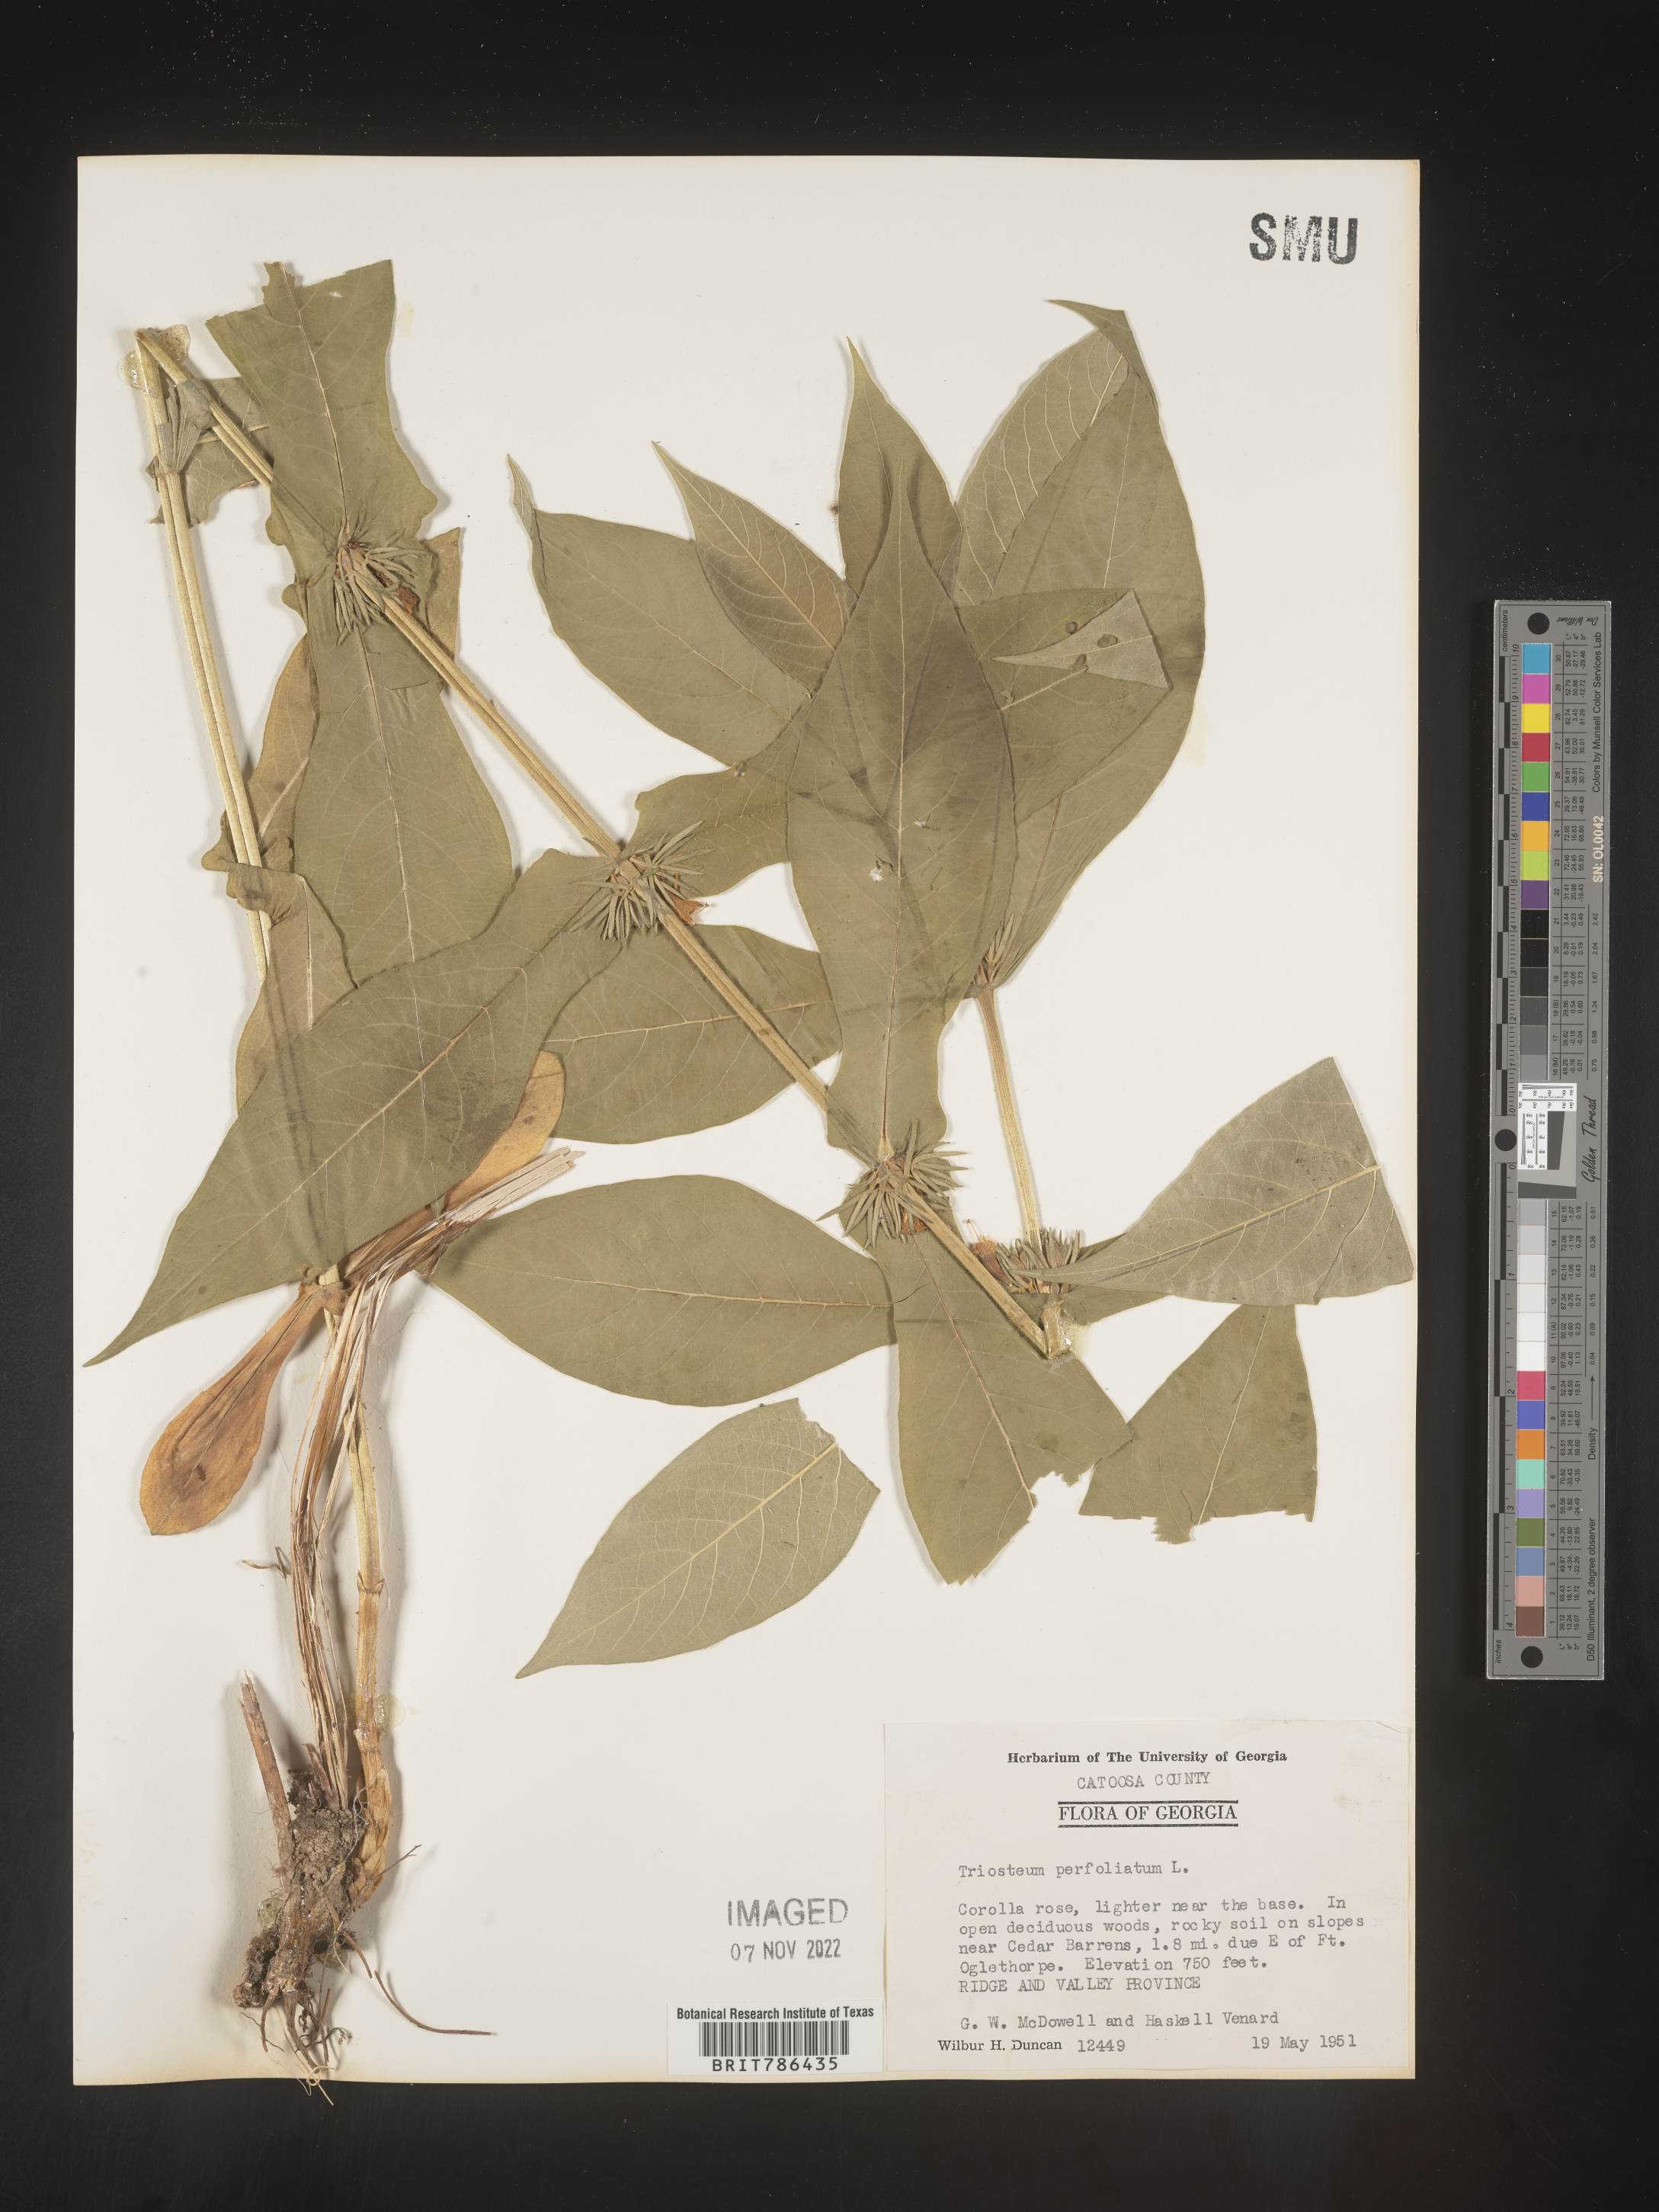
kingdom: Plantae
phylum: Tracheophyta
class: Magnoliopsida
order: Dipsacales
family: Caprifoliaceae
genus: Triosteum
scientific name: Triosteum perfoliatum
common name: Common horse-gentian
